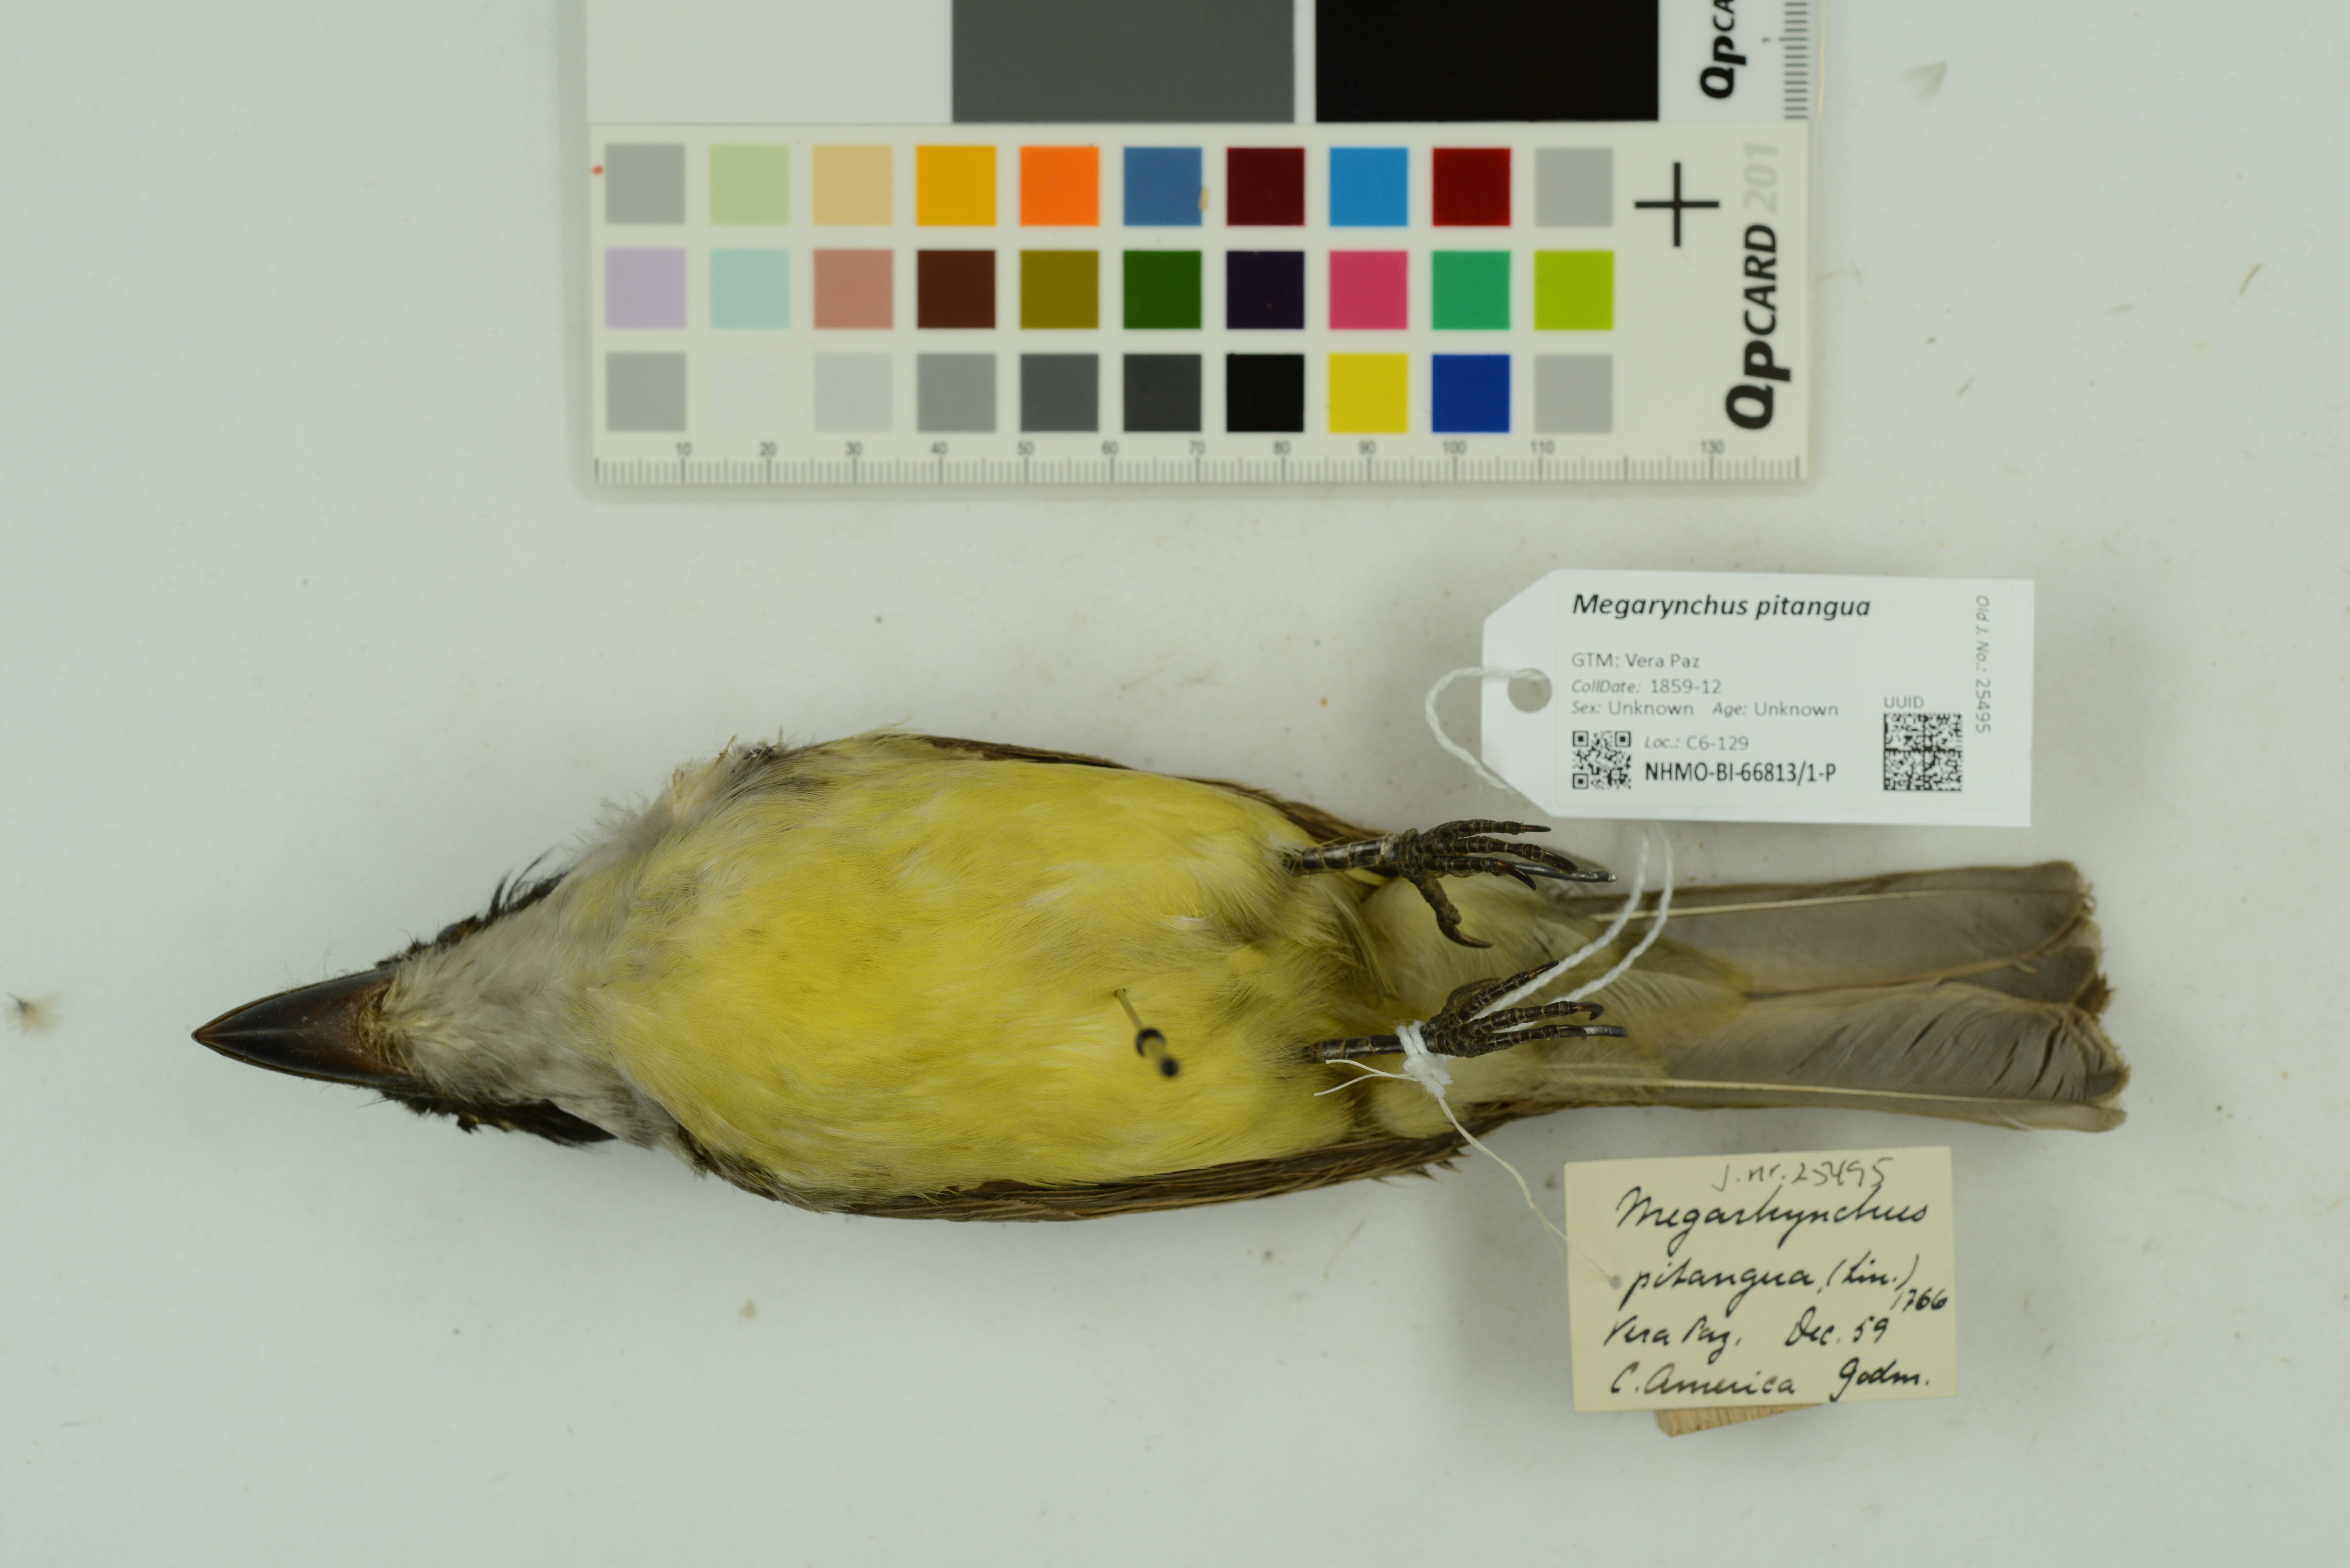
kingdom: Animalia
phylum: Chordata
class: Aves
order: Passeriformes
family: Tyrannidae
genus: Megarynchus
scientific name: Megarynchus pitangua
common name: Boat-billed flycatcher
